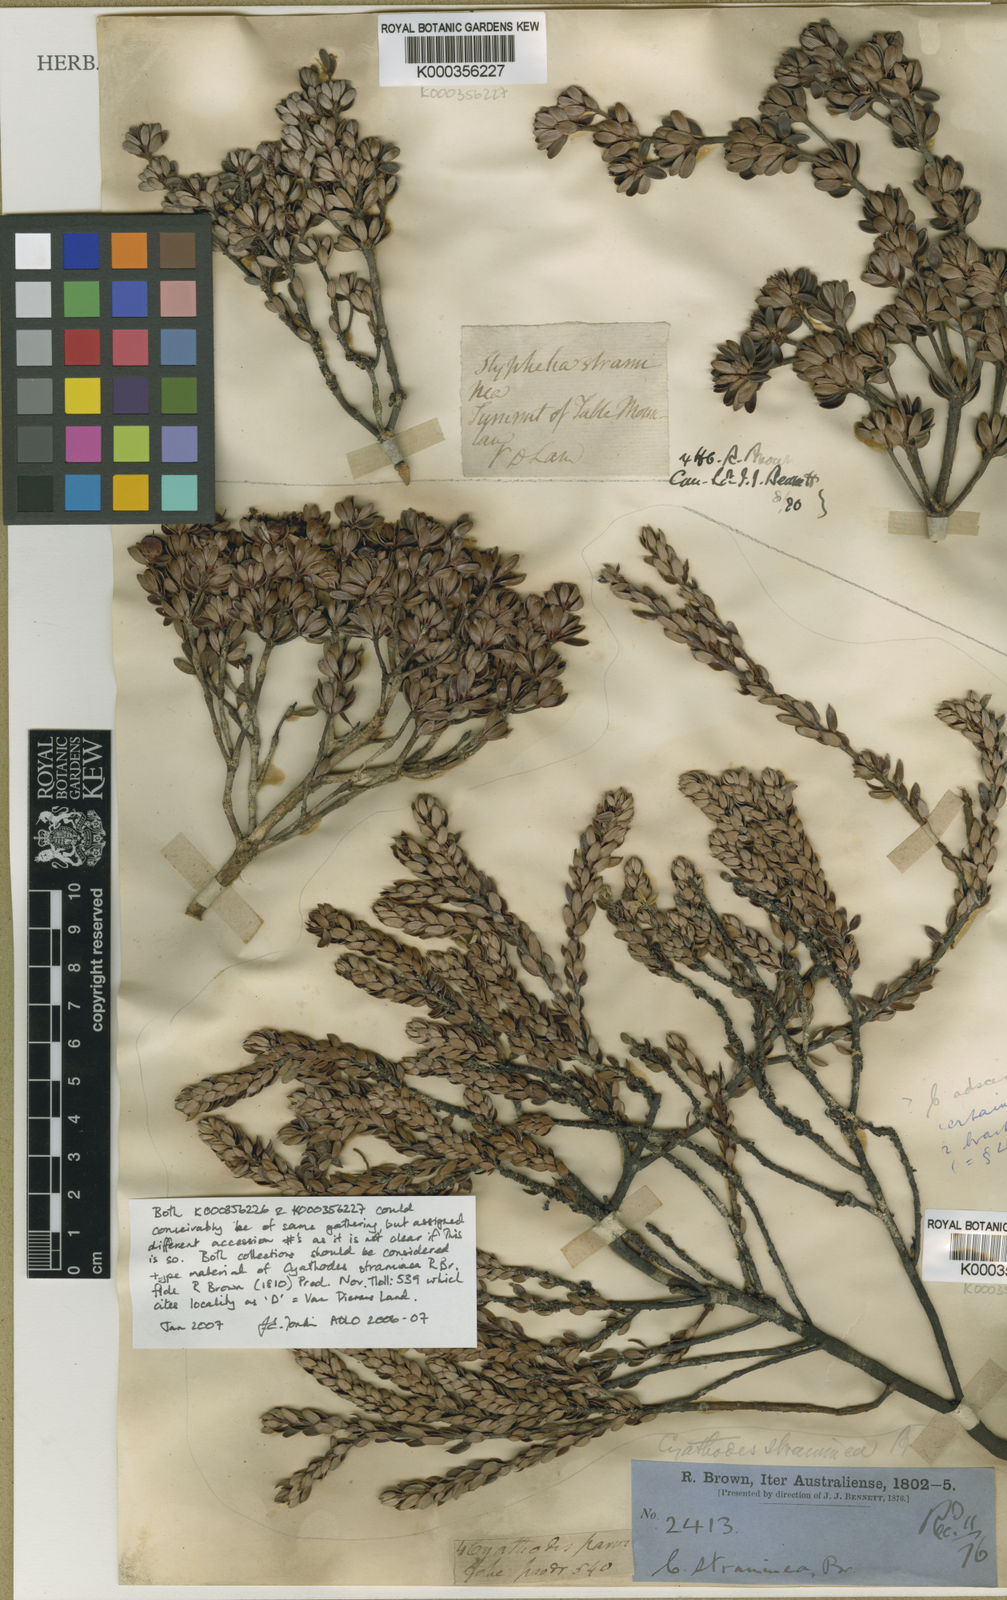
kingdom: Plantae
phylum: Tracheophyta
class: Magnoliopsida
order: Ericales
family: Ericaceae
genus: Cyathodes
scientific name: Cyathodes straminea
